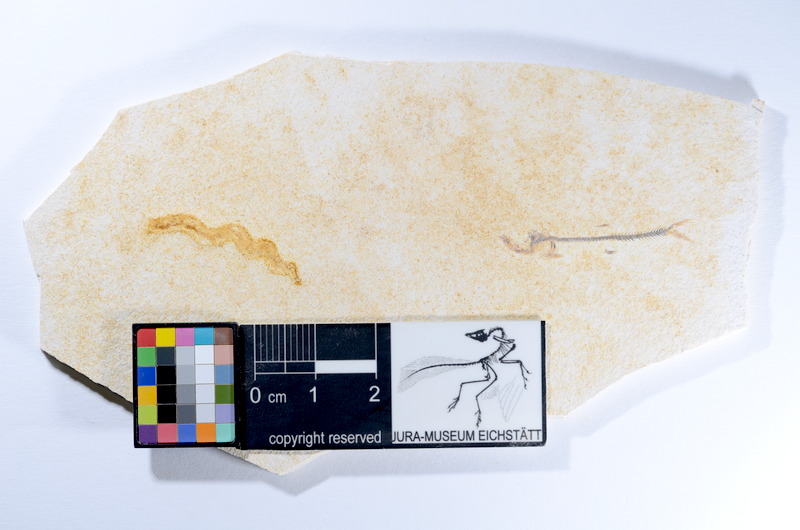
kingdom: Animalia
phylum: Chordata
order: Salmoniformes
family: Orthogonikleithridae
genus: Orthogonikleithrus
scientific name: Orthogonikleithrus hoelli
